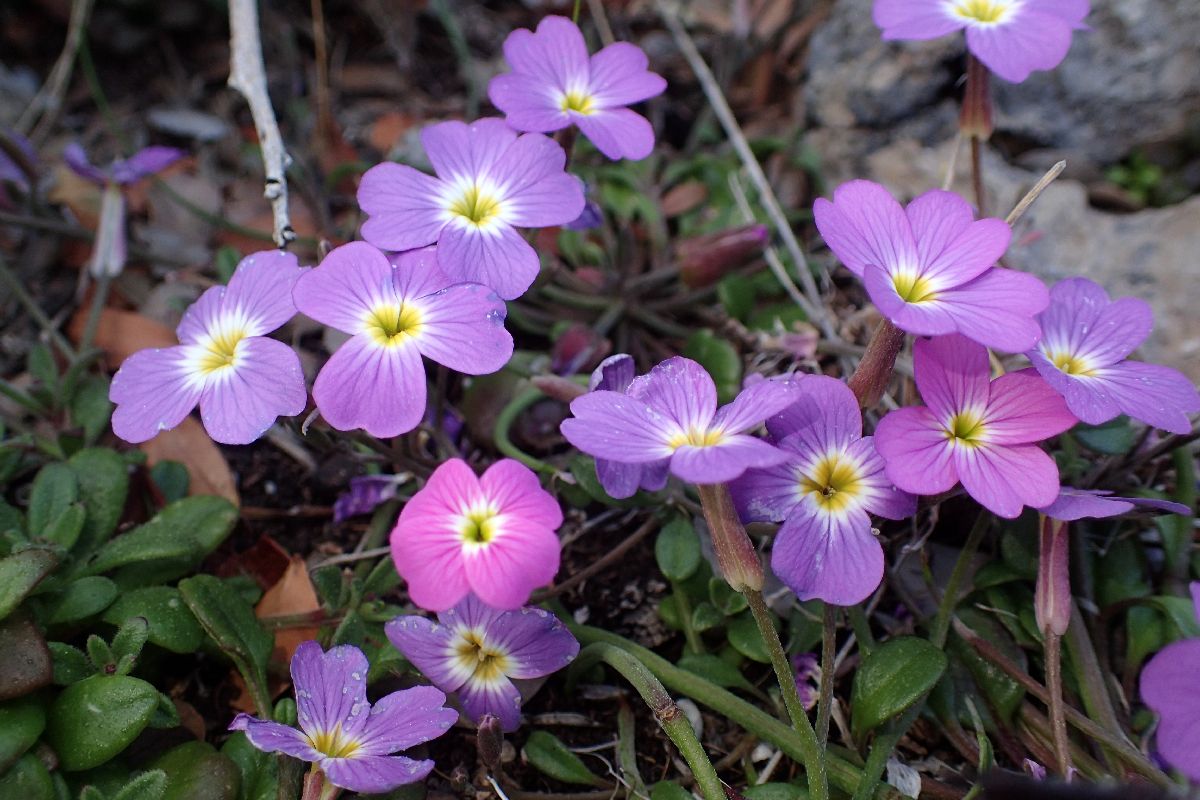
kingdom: Plantae
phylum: Tracheophyta
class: Magnoliopsida
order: Brassicales
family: Brassicaceae
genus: Malcolmia
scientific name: Malcolmia flexuosa
